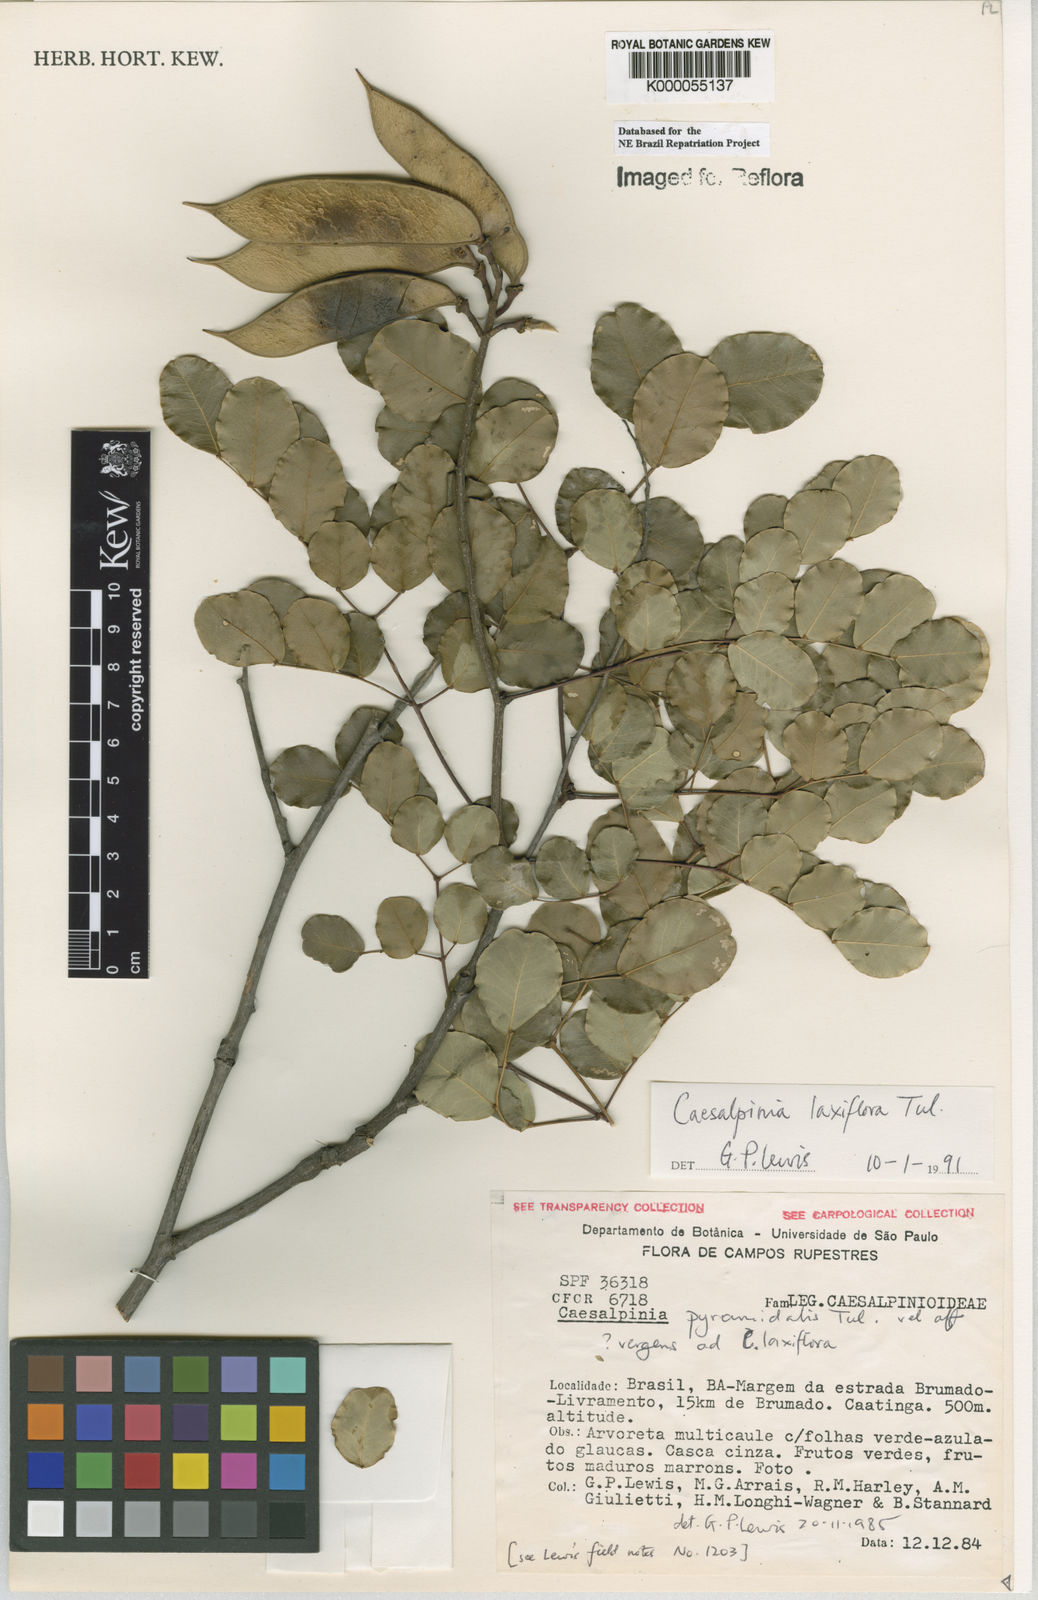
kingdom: Plantae
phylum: Tracheophyta
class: Magnoliopsida
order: Fabales
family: Fabaceae
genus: Cenostigma
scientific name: Cenostigma laxiflorum
